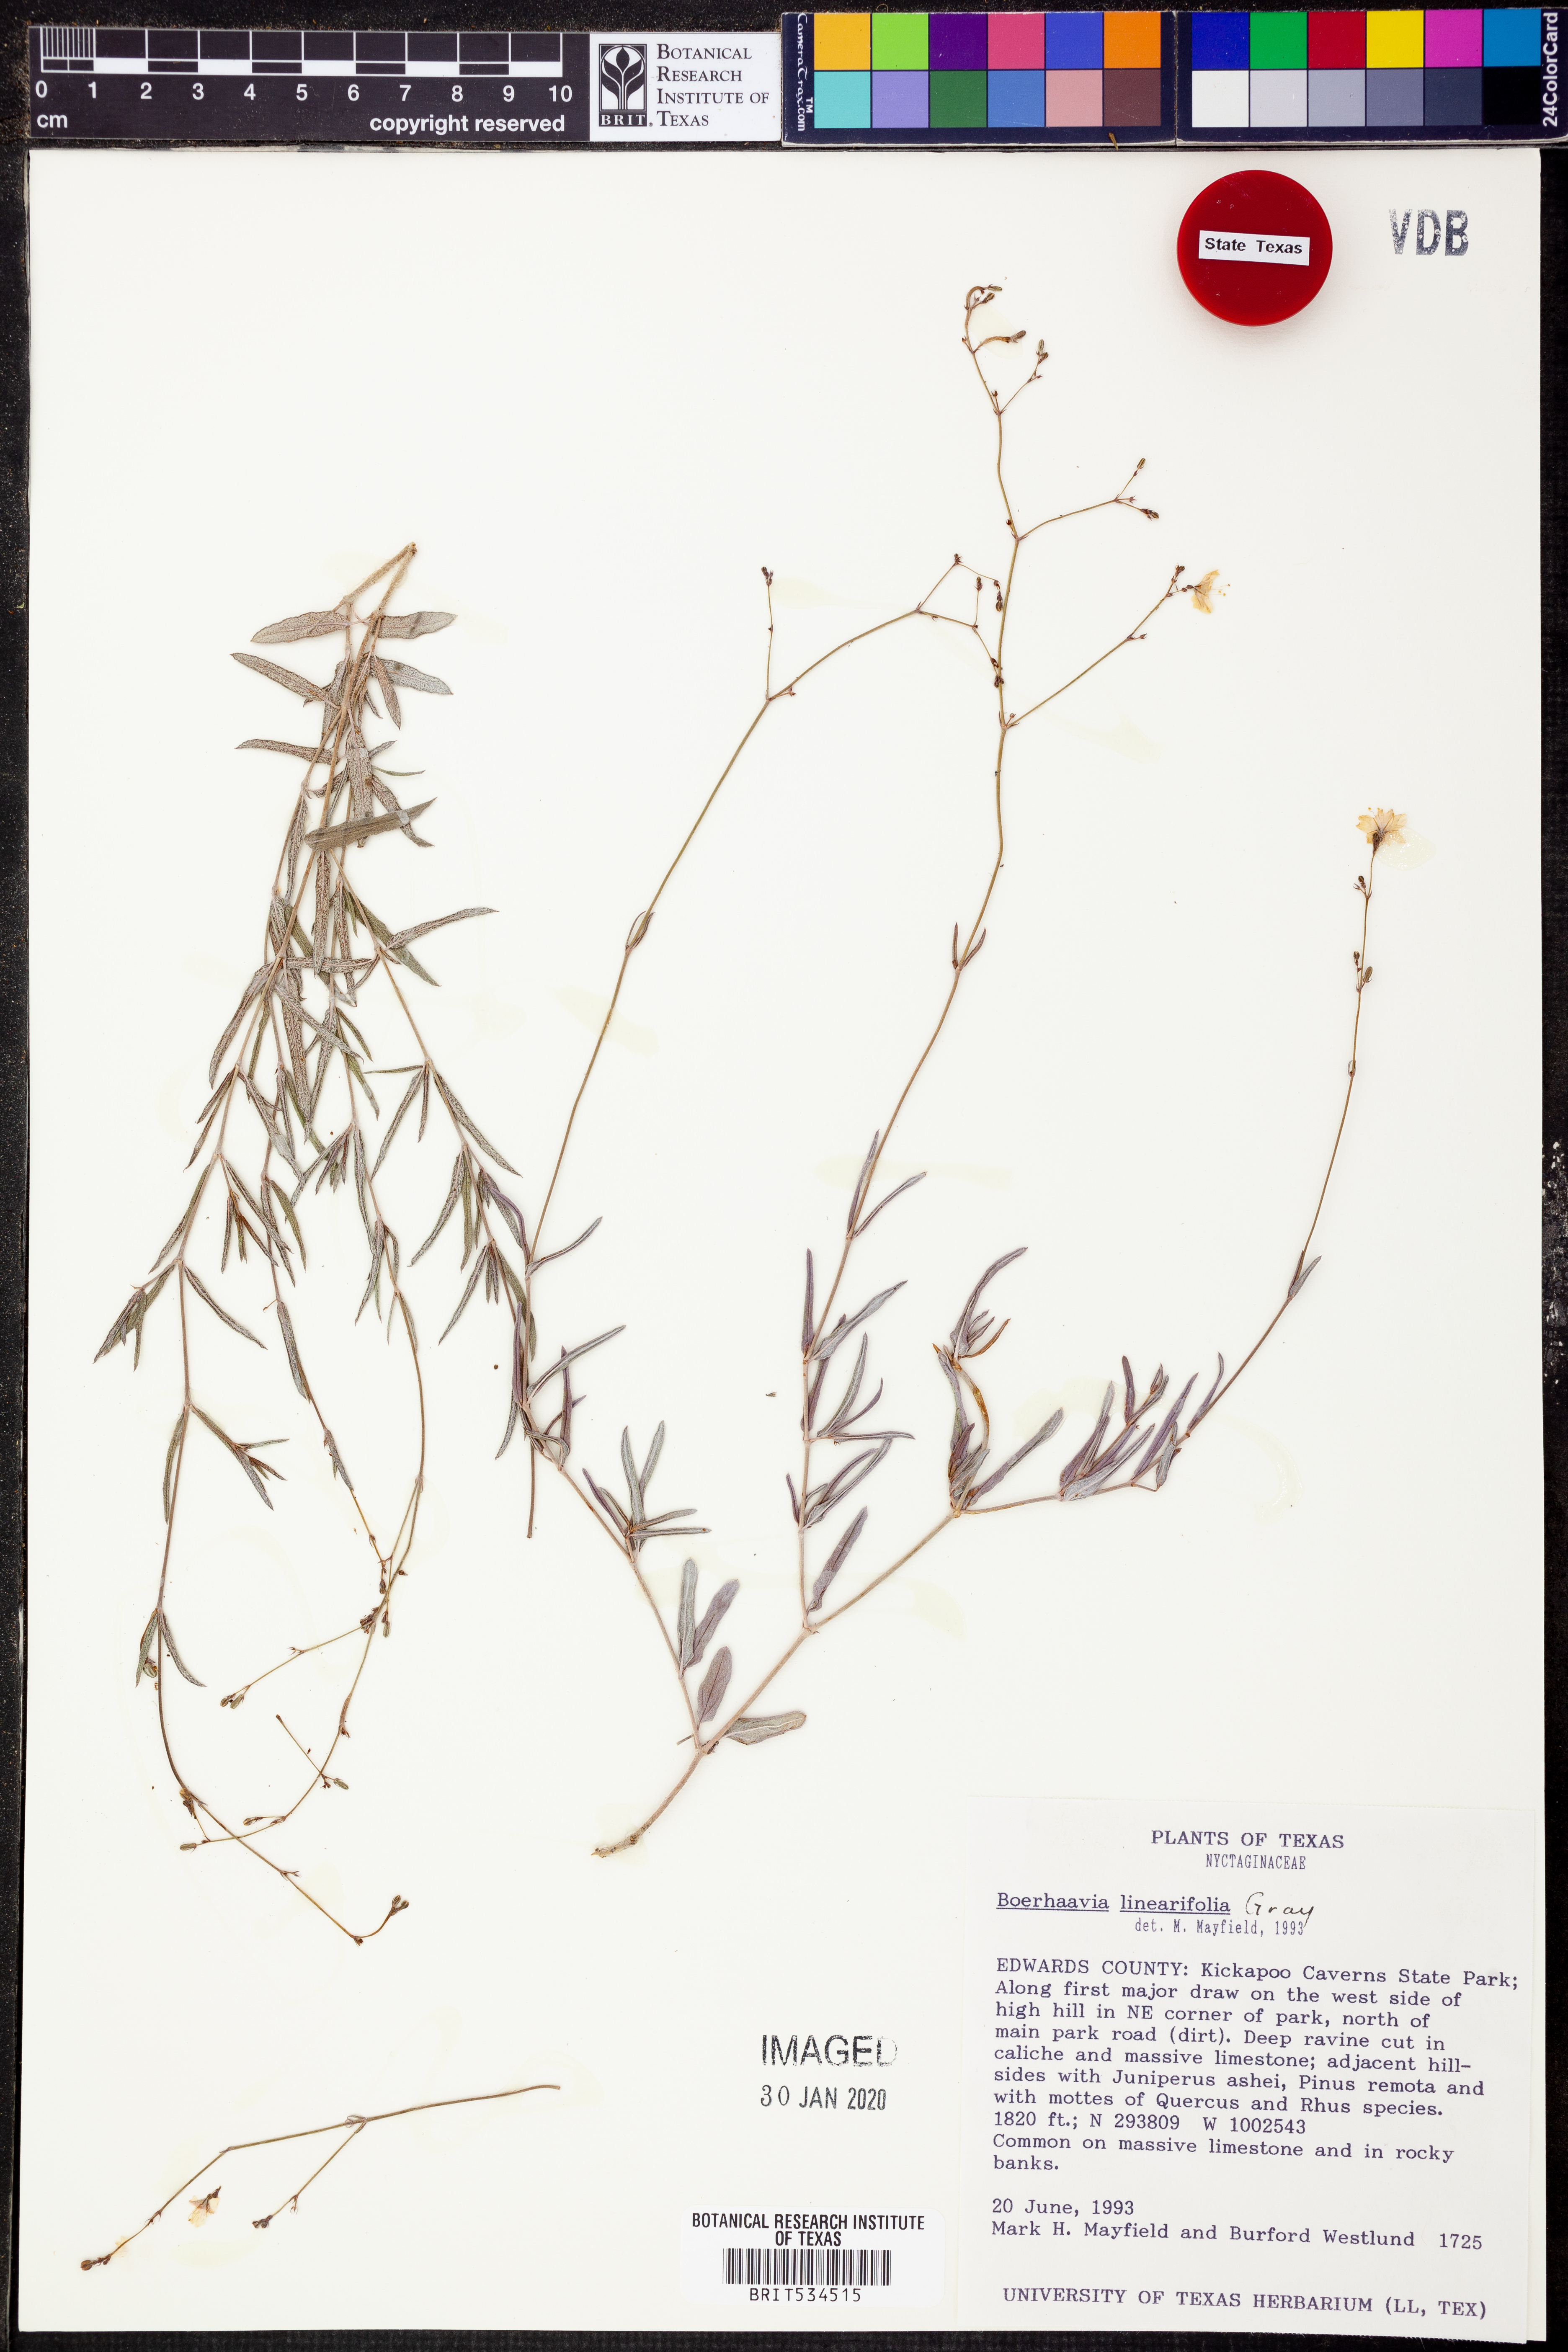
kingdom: Plantae
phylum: Tracheophyta
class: Magnoliopsida
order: Caryophyllales
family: Nyctaginaceae
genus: Boerhavia
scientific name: Boerhavia linearifolia
